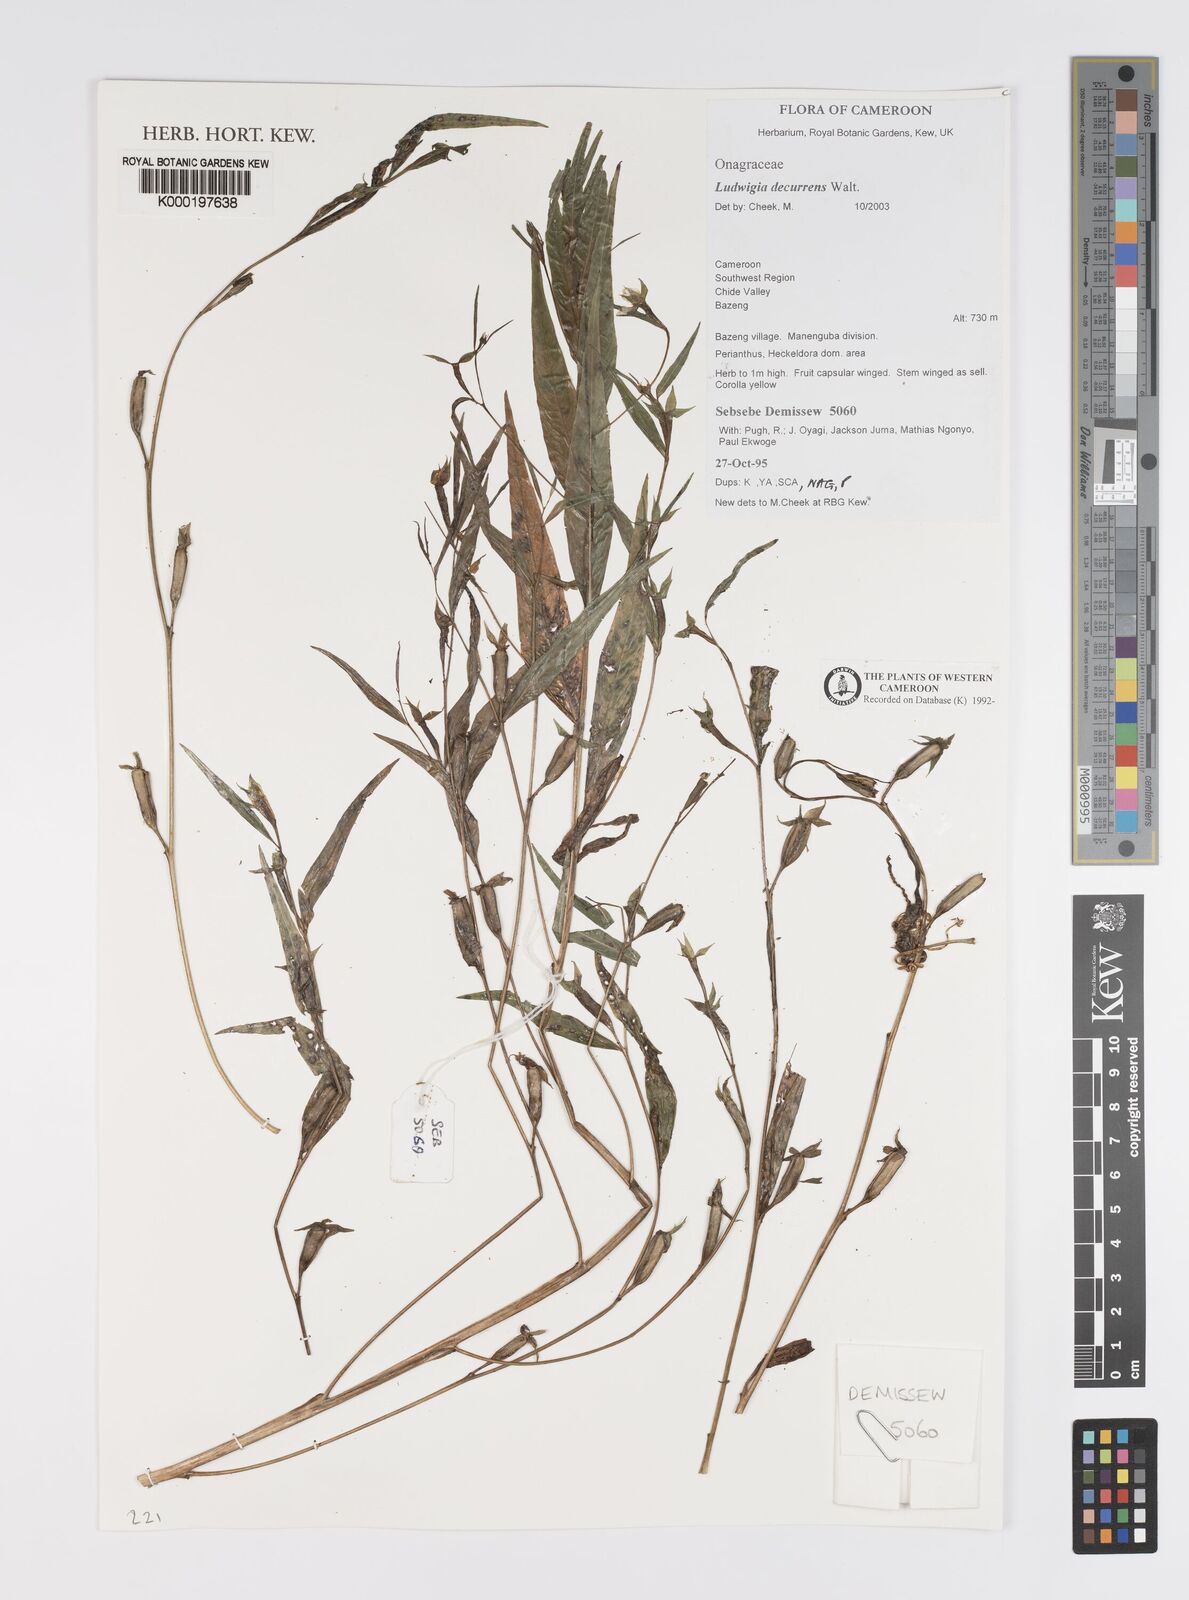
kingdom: Plantae
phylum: Tracheophyta
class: Magnoliopsida
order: Myrtales
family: Onagraceae
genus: Ludwigia
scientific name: Ludwigia decurrens
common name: Winged water-primrose
